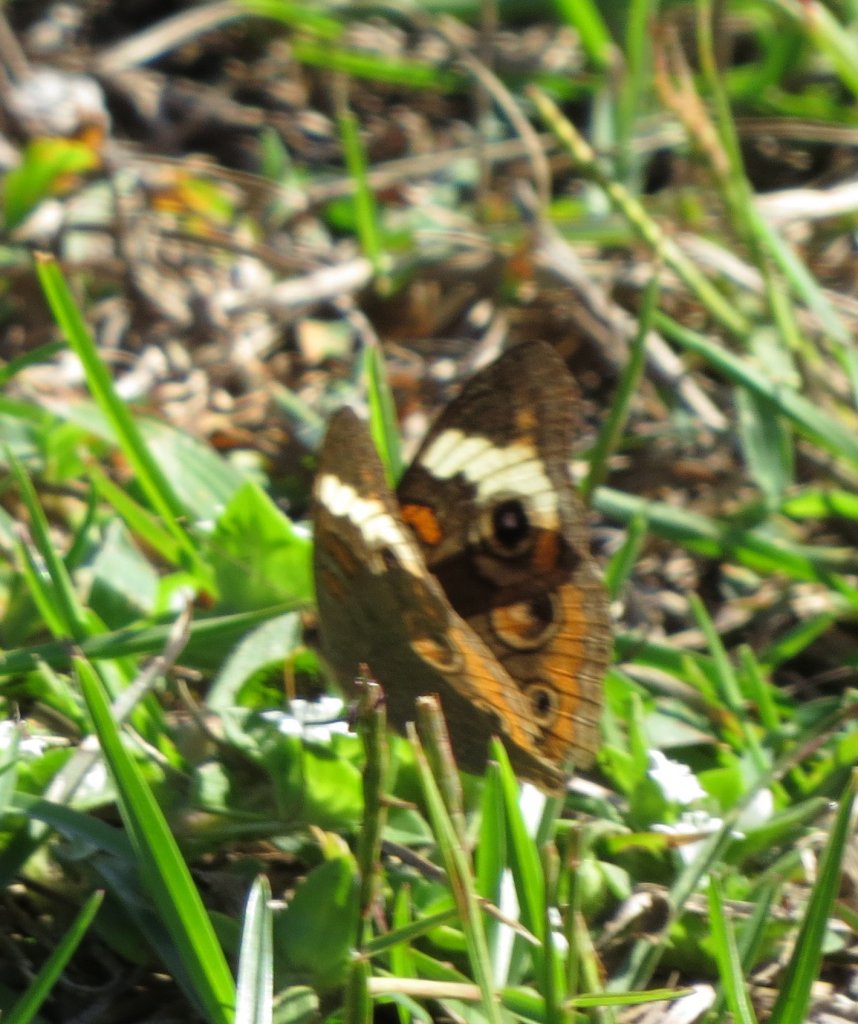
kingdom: Animalia
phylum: Arthropoda
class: Insecta
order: Lepidoptera
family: Nymphalidae
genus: Junonia
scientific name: Junonia coenia
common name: Common Buckeye
